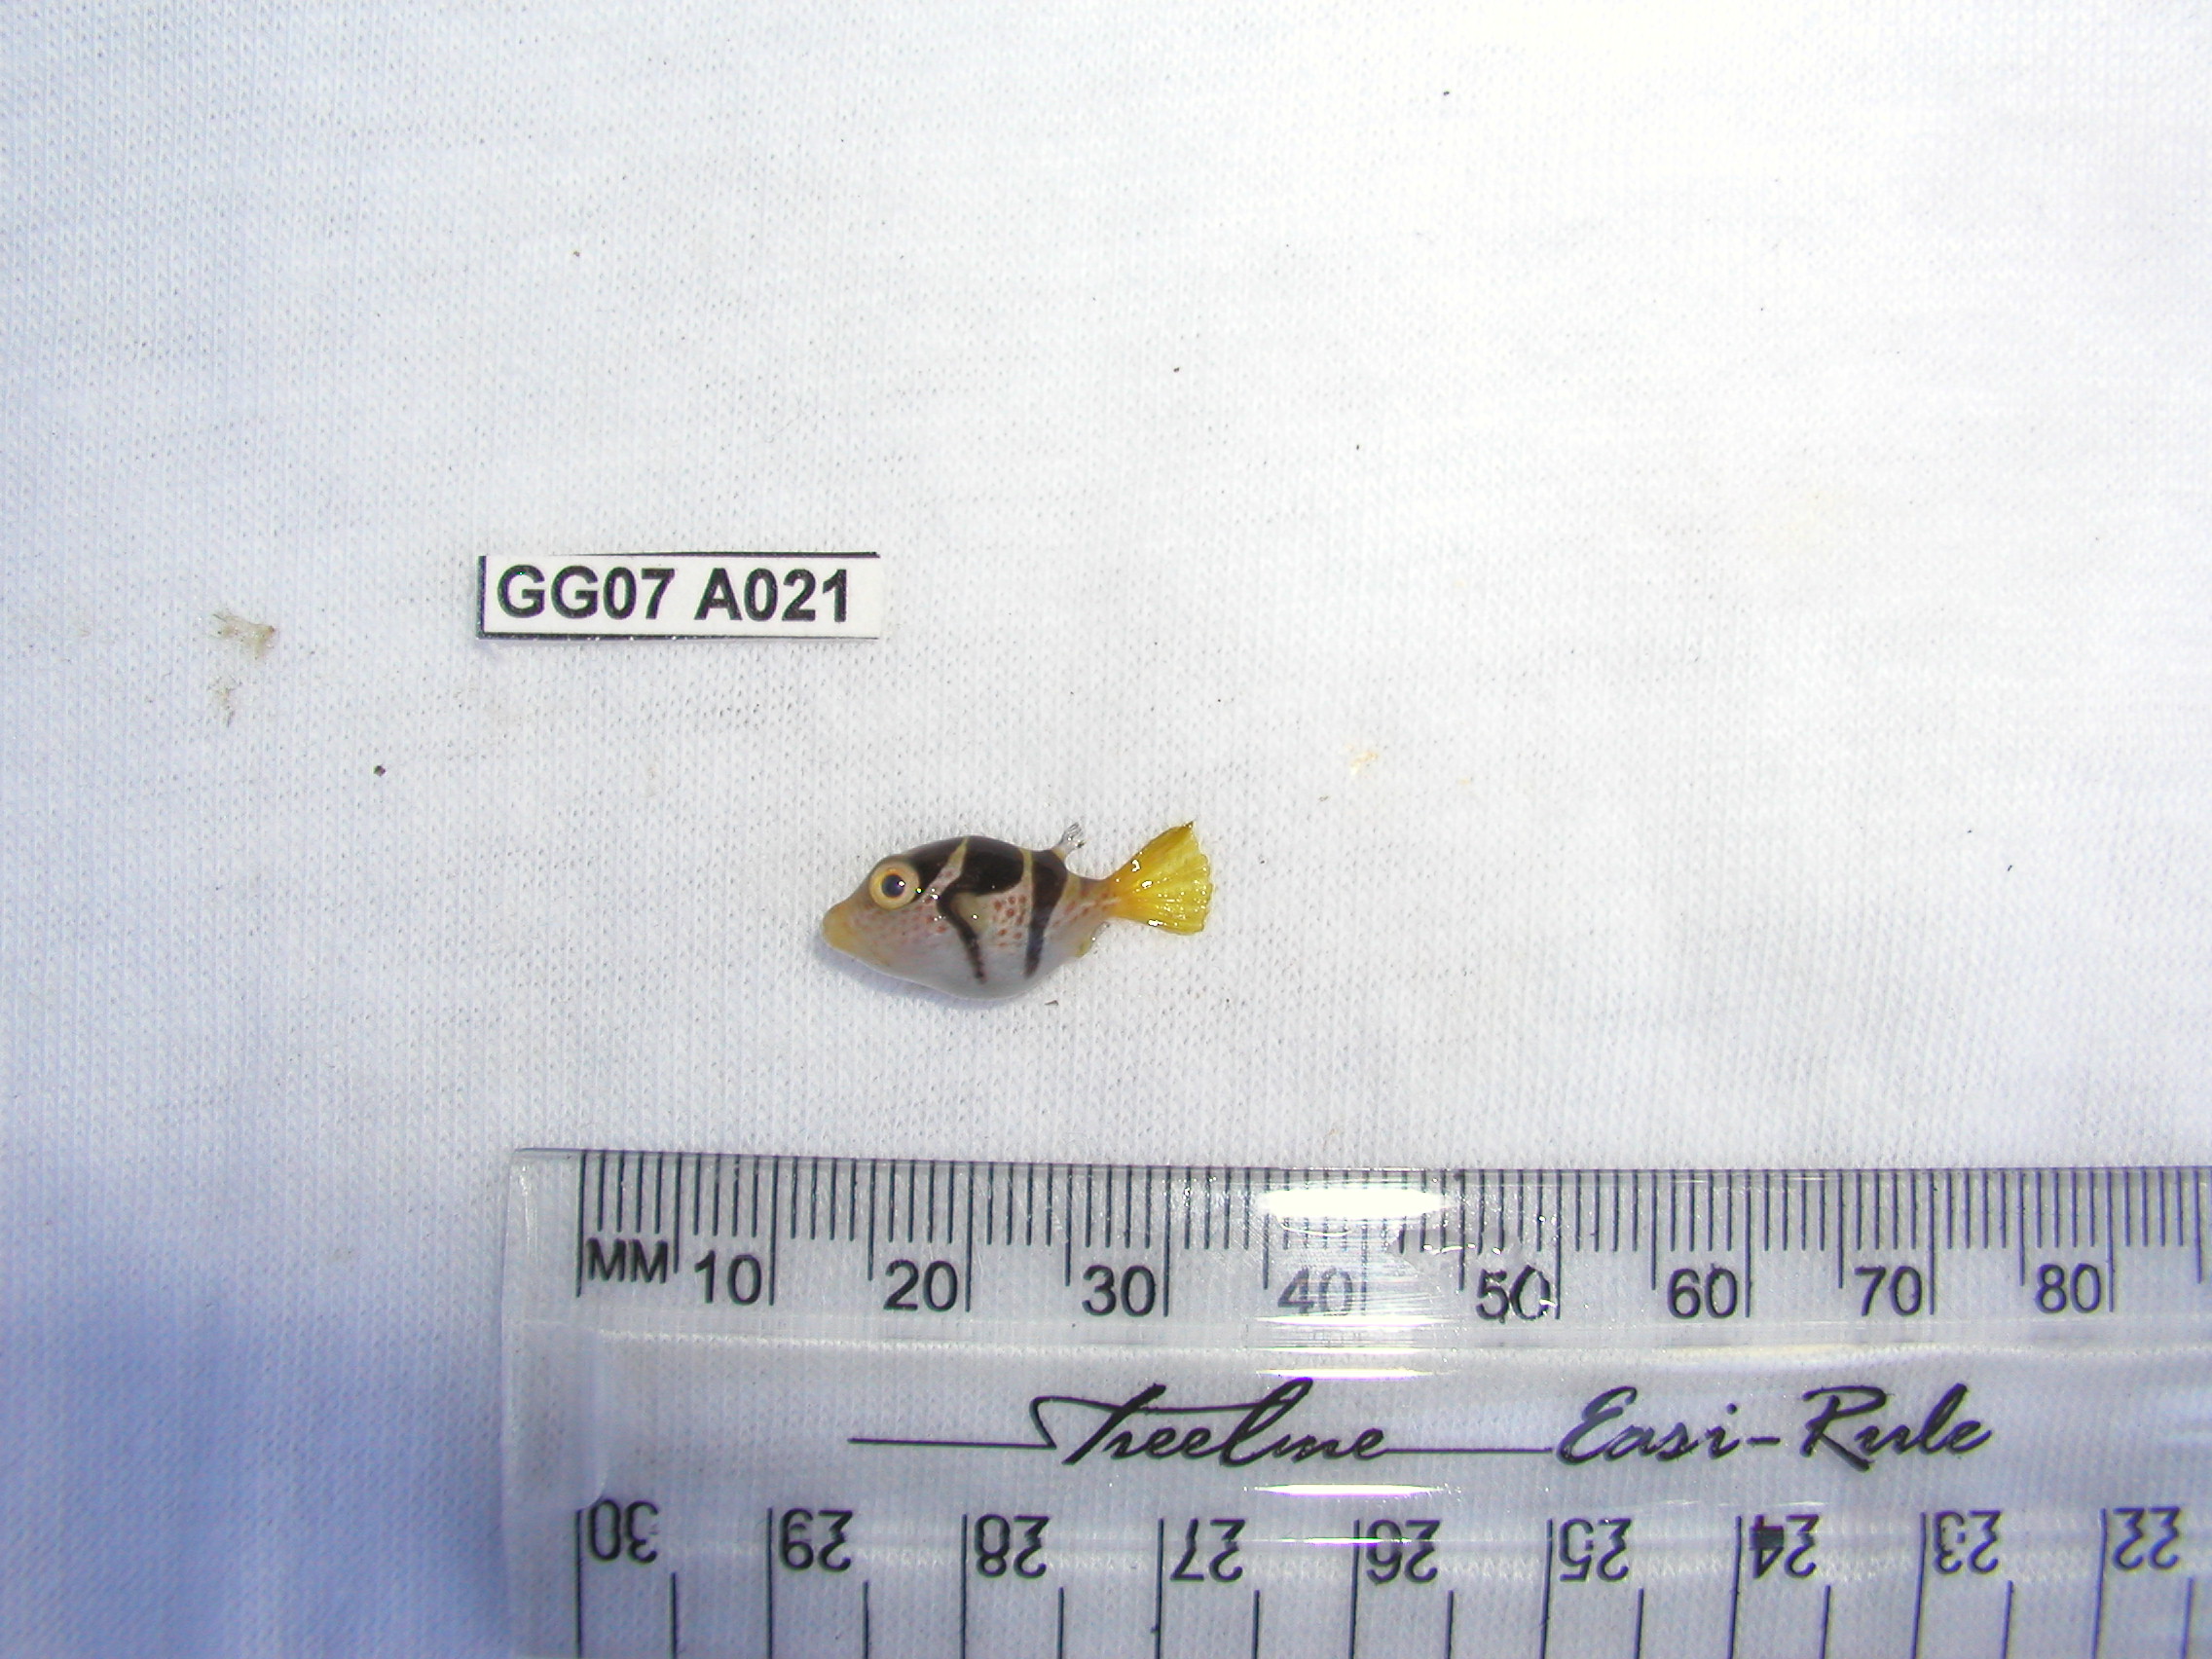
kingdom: Animalia
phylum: Chordata
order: Tetraodontiformes
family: Tetraodontidae
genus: Canthigaster
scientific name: Canthigaster valentini
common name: Banded toby
